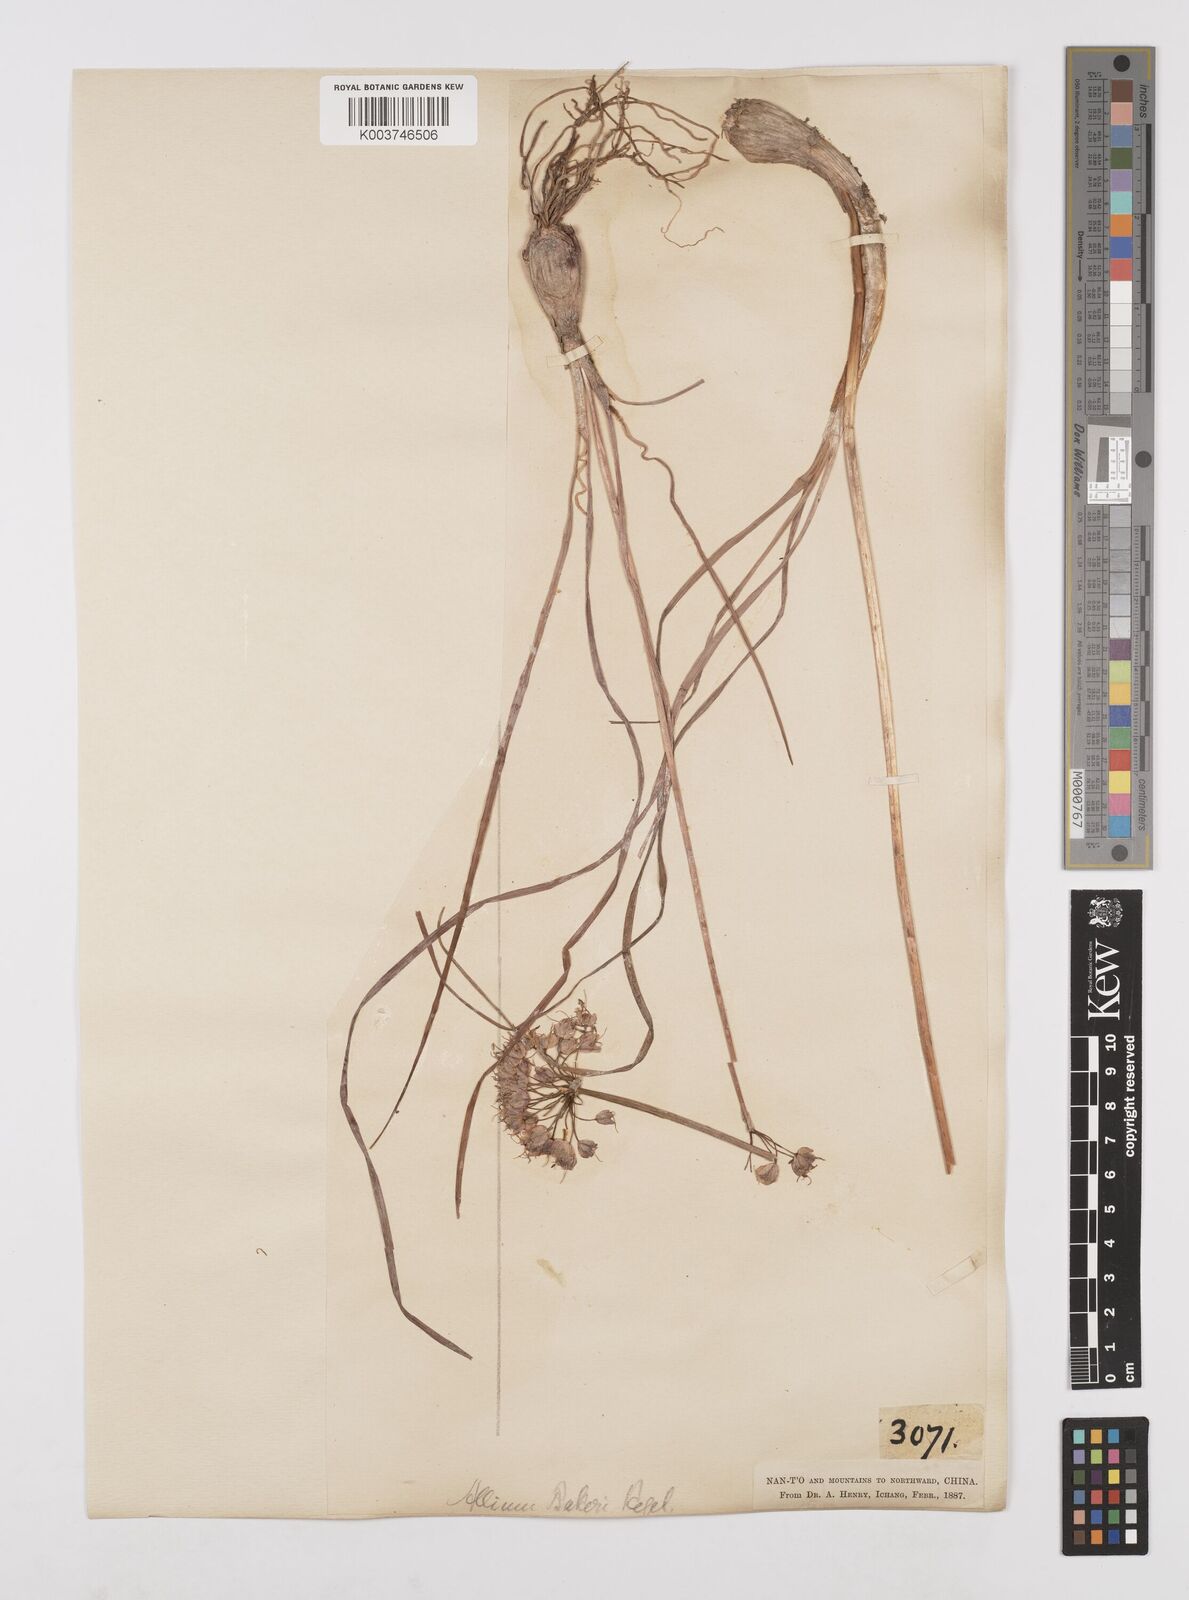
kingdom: Plantae
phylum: Tracheophyta
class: Liliopsida
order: Asparagales
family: Amaryllidaceae
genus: Allium
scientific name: Allium chinense
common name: Japanese scallion
